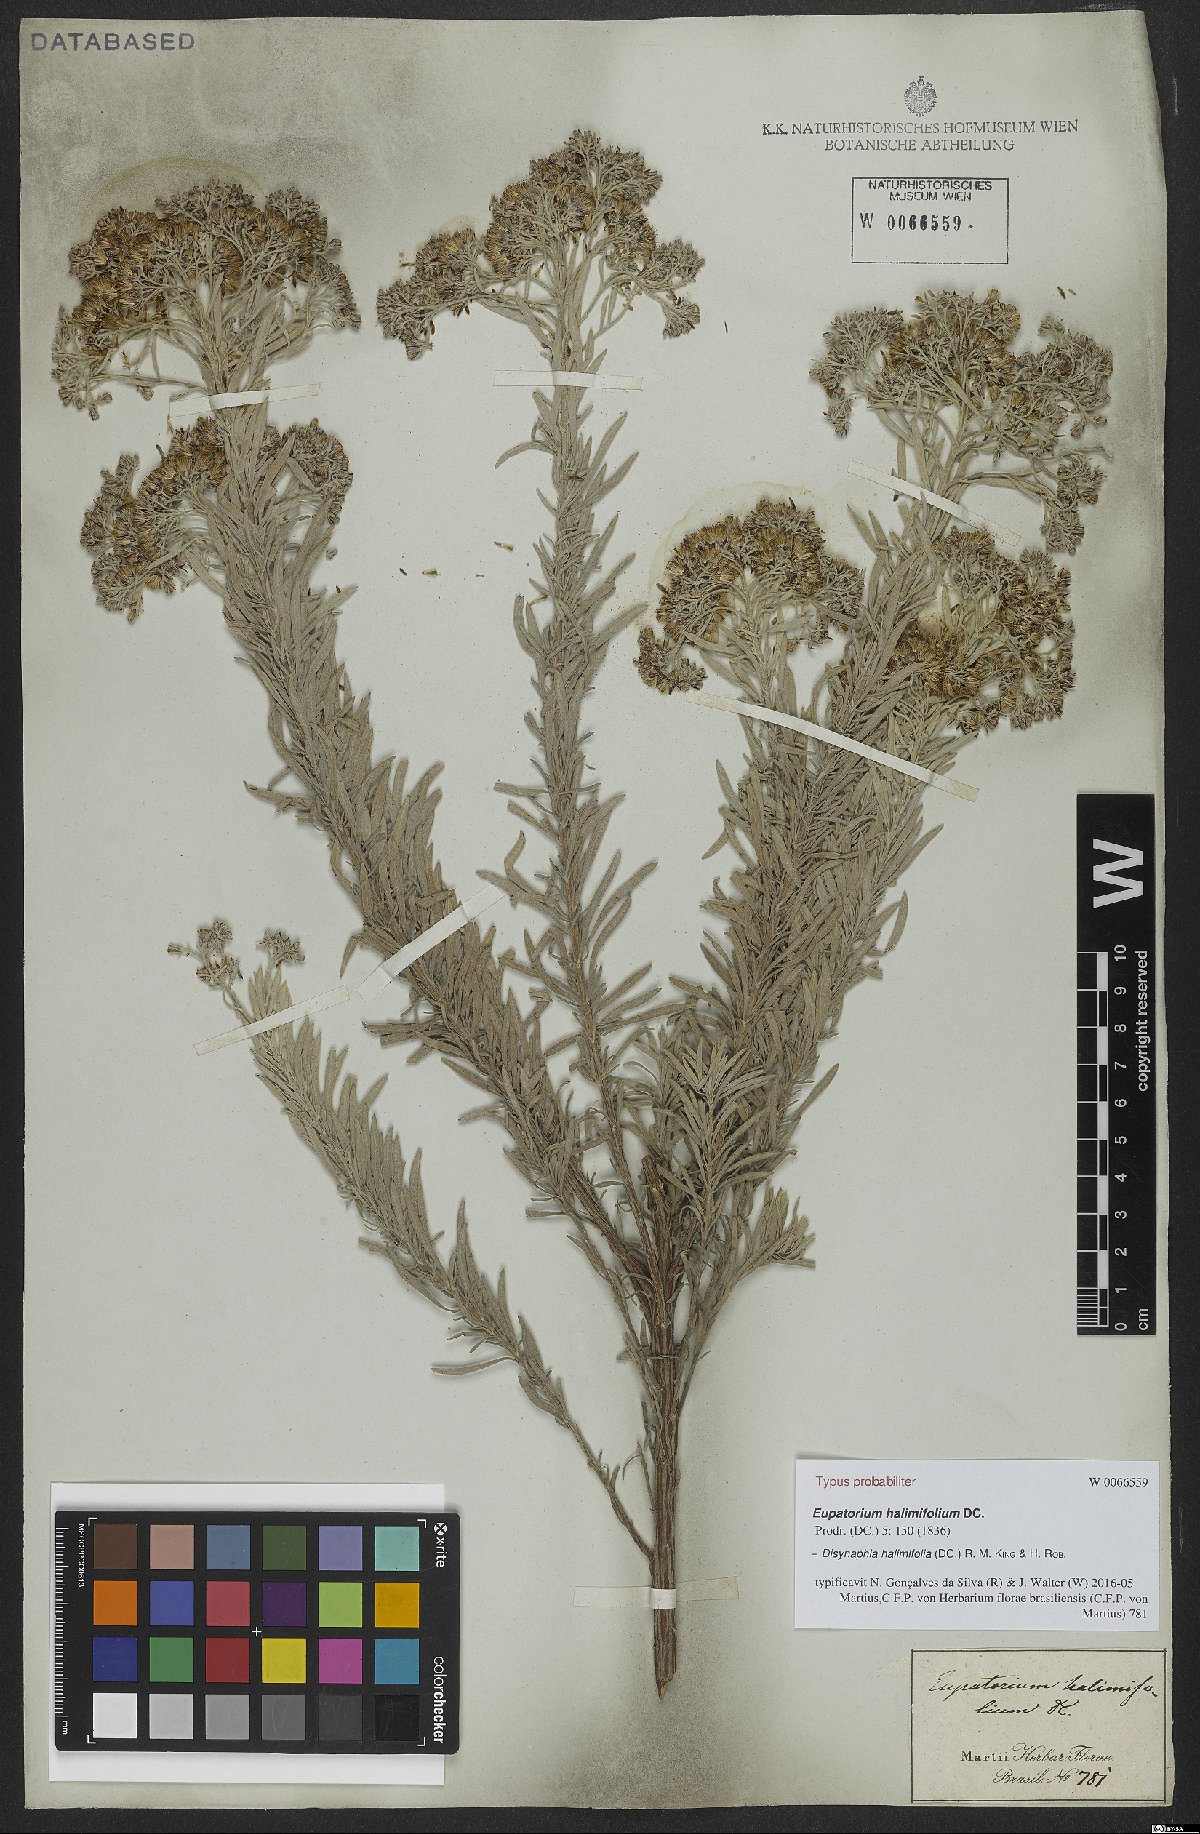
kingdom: Plantae
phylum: Tracheophyta
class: Magnoliopsida
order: Asterales
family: Asteraceae
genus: Disynaphia
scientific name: Disynaphia halimifolia
